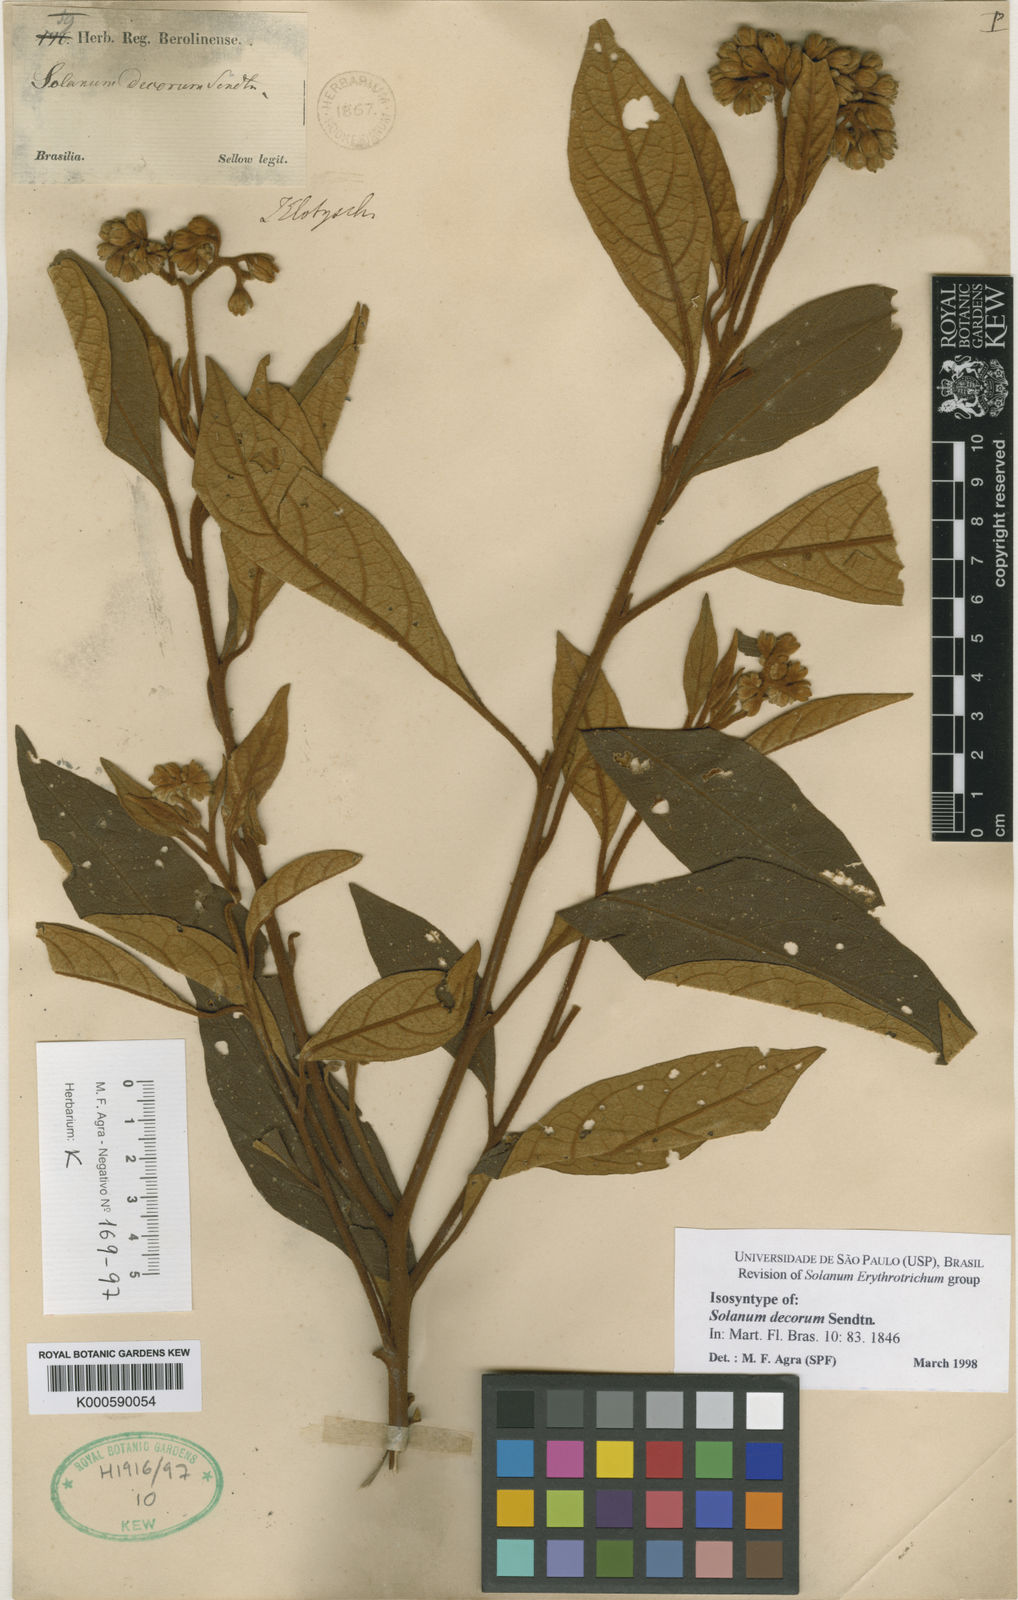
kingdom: Plantae
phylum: Tracheophyta
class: Magnoliopsida
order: Solanales
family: Solanaceae
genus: Solanum
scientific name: Solanum decorum
